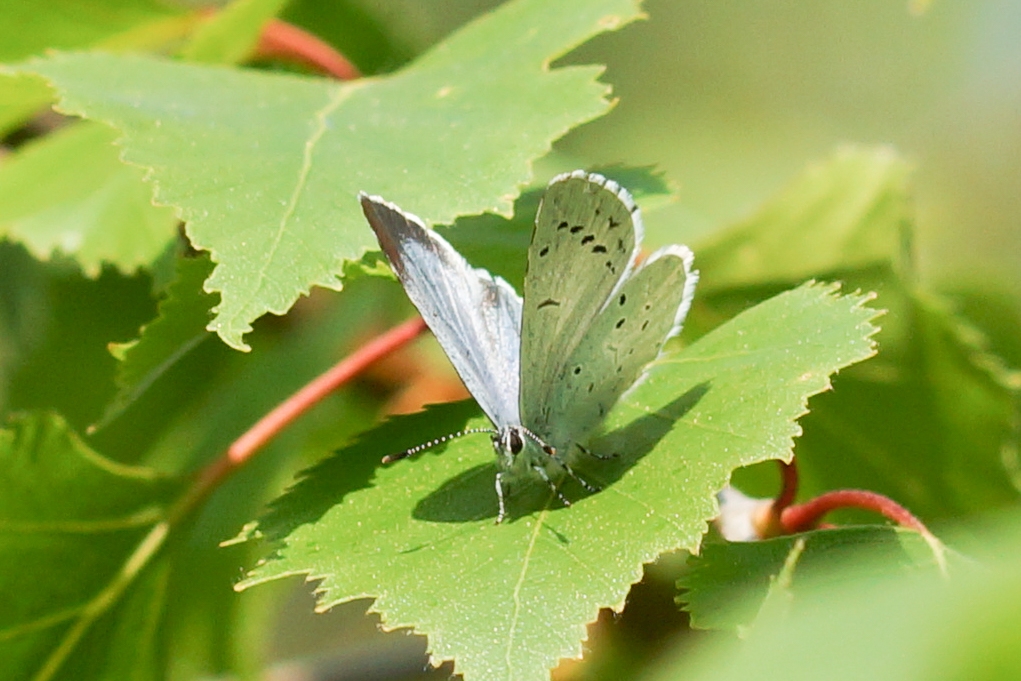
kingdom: Animalia
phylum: Arthropoda
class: Insecta
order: Lepidoptera
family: Lycaenidae
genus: Celastrina
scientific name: Celastrina argiolus
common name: Skovblåfugl
